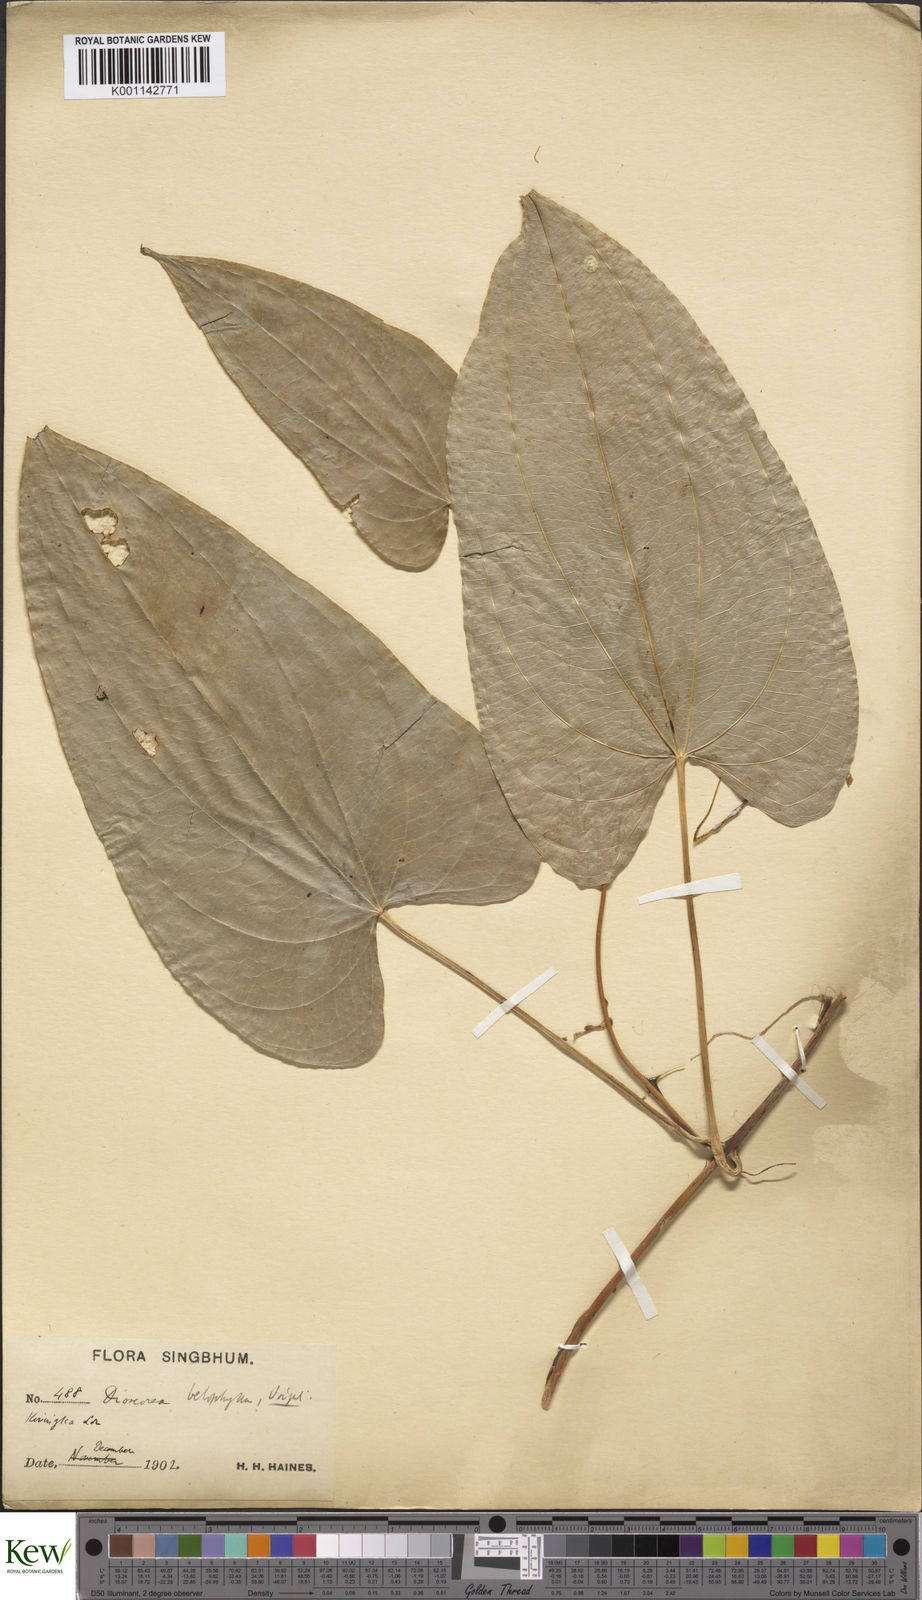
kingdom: Plantae
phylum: Tracheophyta
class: Liliopsida
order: Dioscoreales
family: Dioscoreaceae
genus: Dioscorea
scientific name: Dioscorea belophylla
